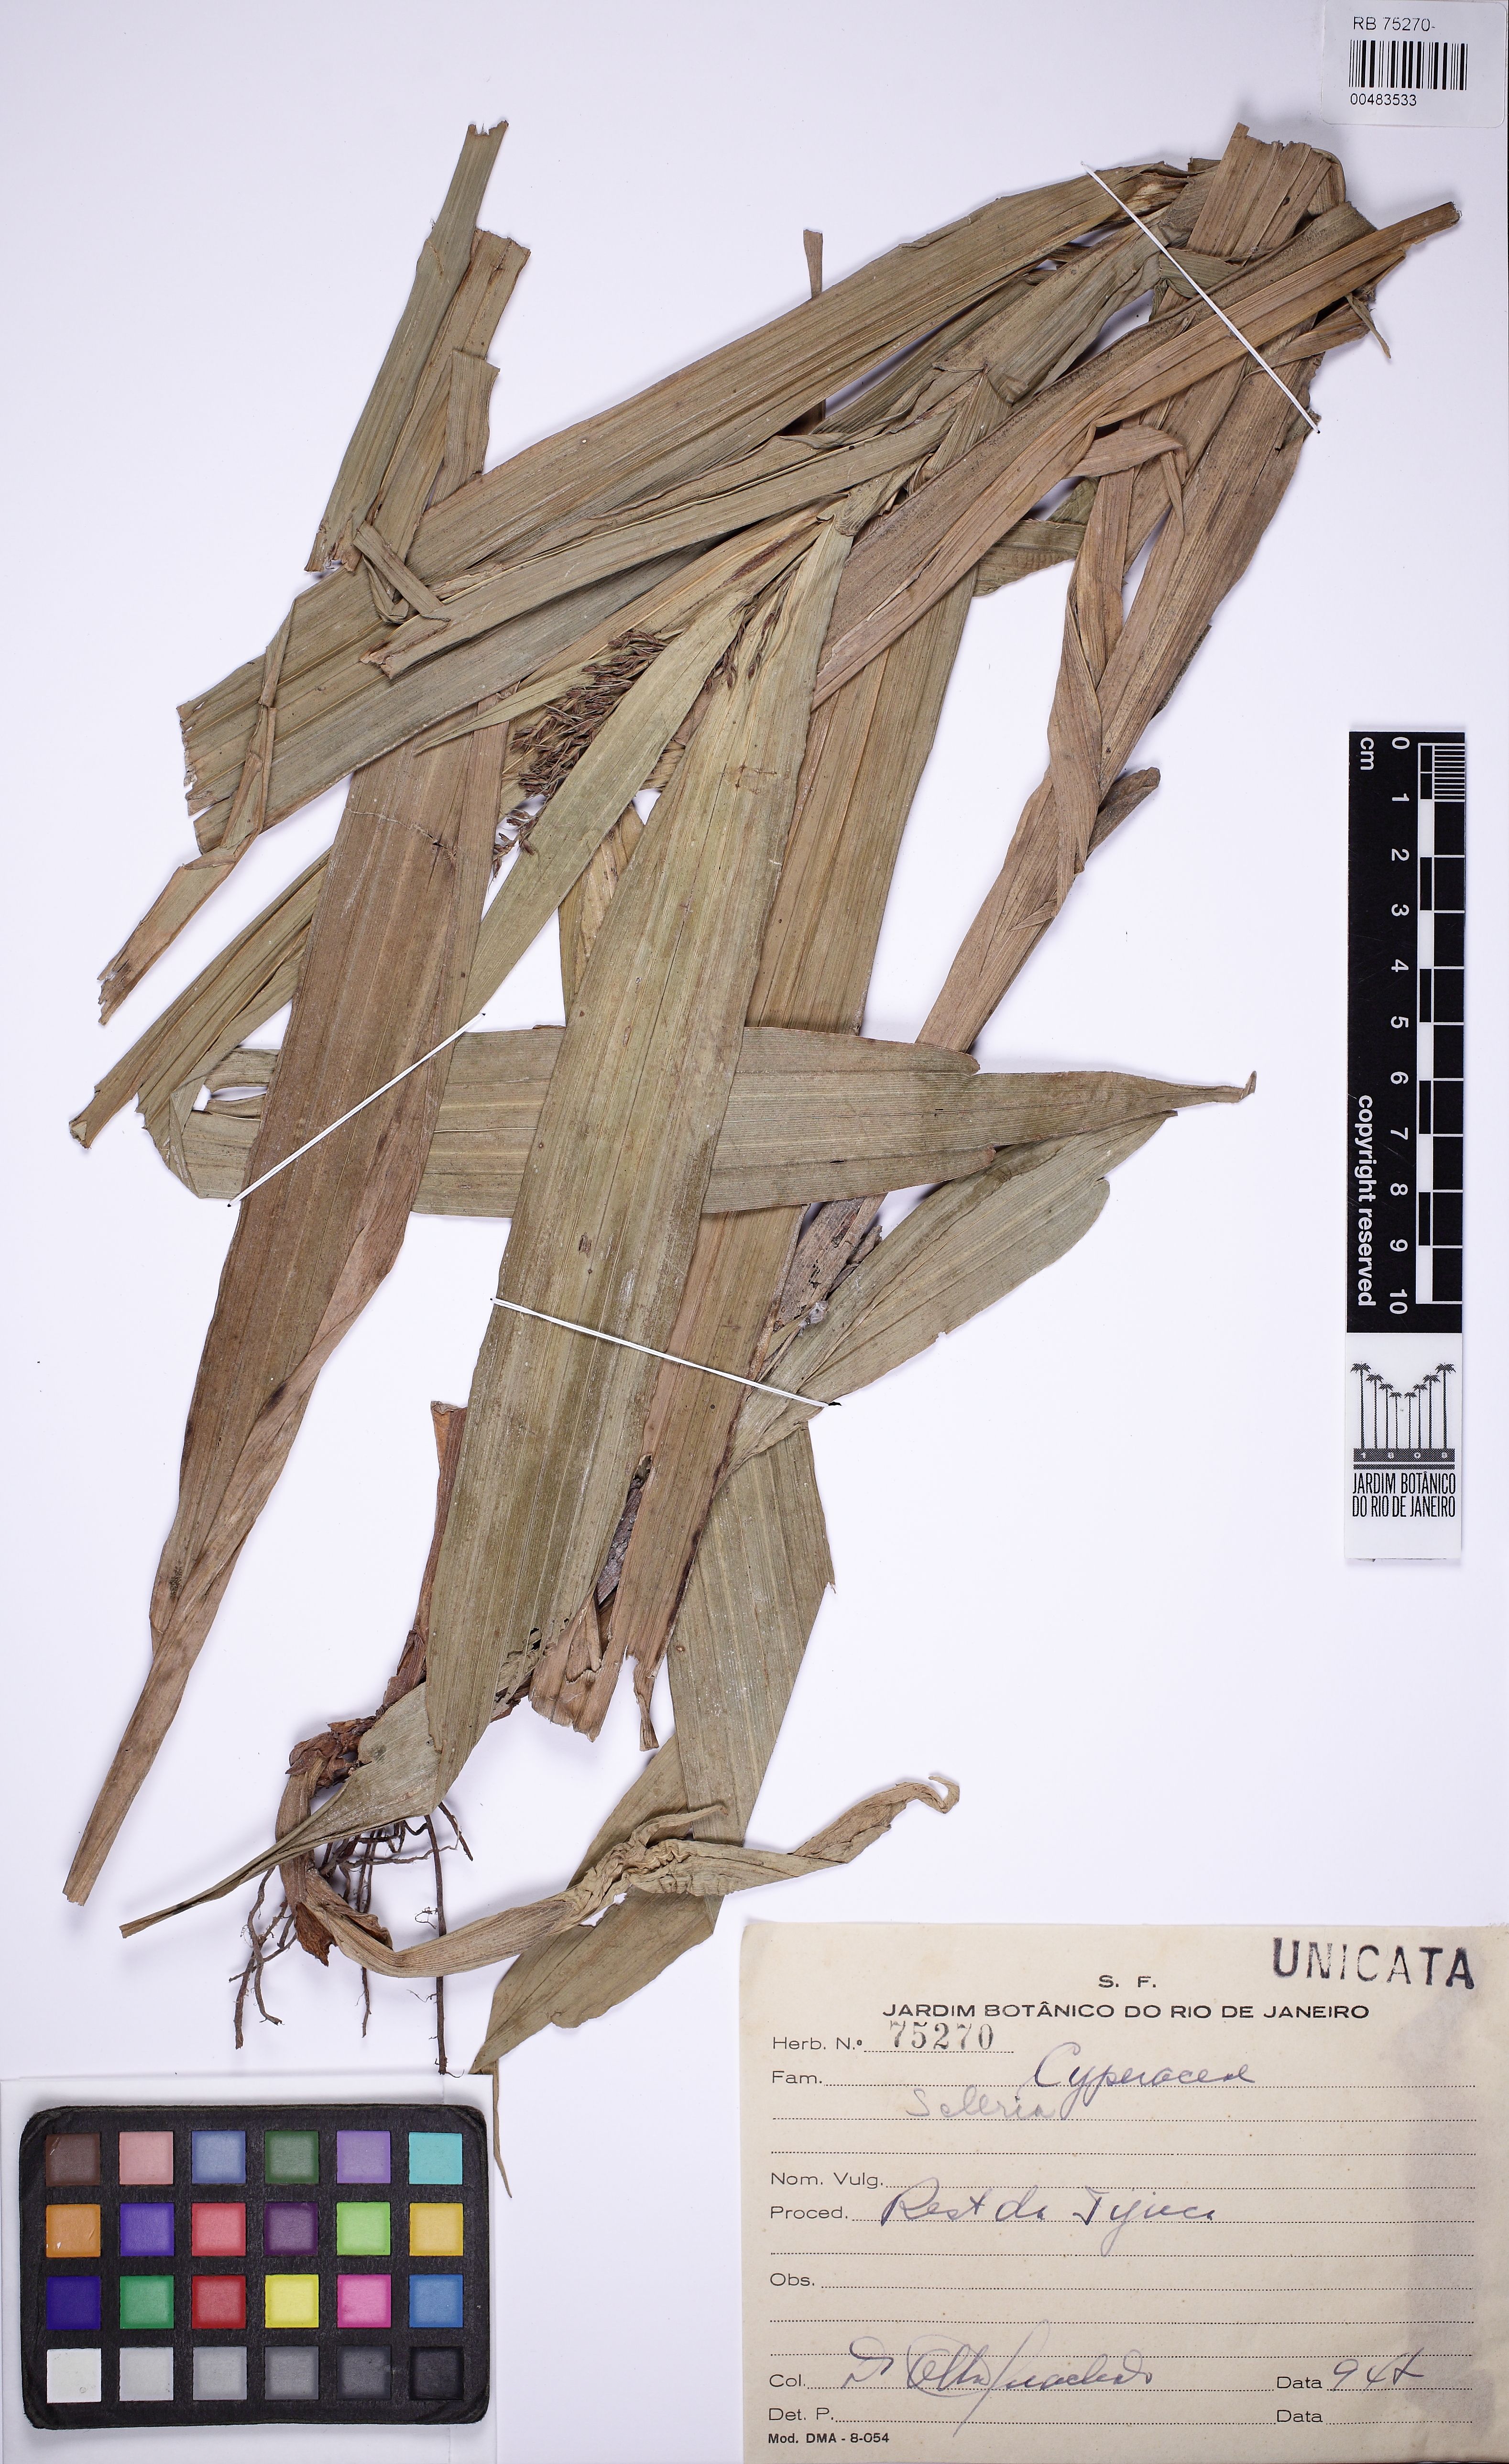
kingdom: Plantae
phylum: Tracheophyta
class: Liliopsida
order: Poales
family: Cyperaceae
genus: Scleria
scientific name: Scleria
